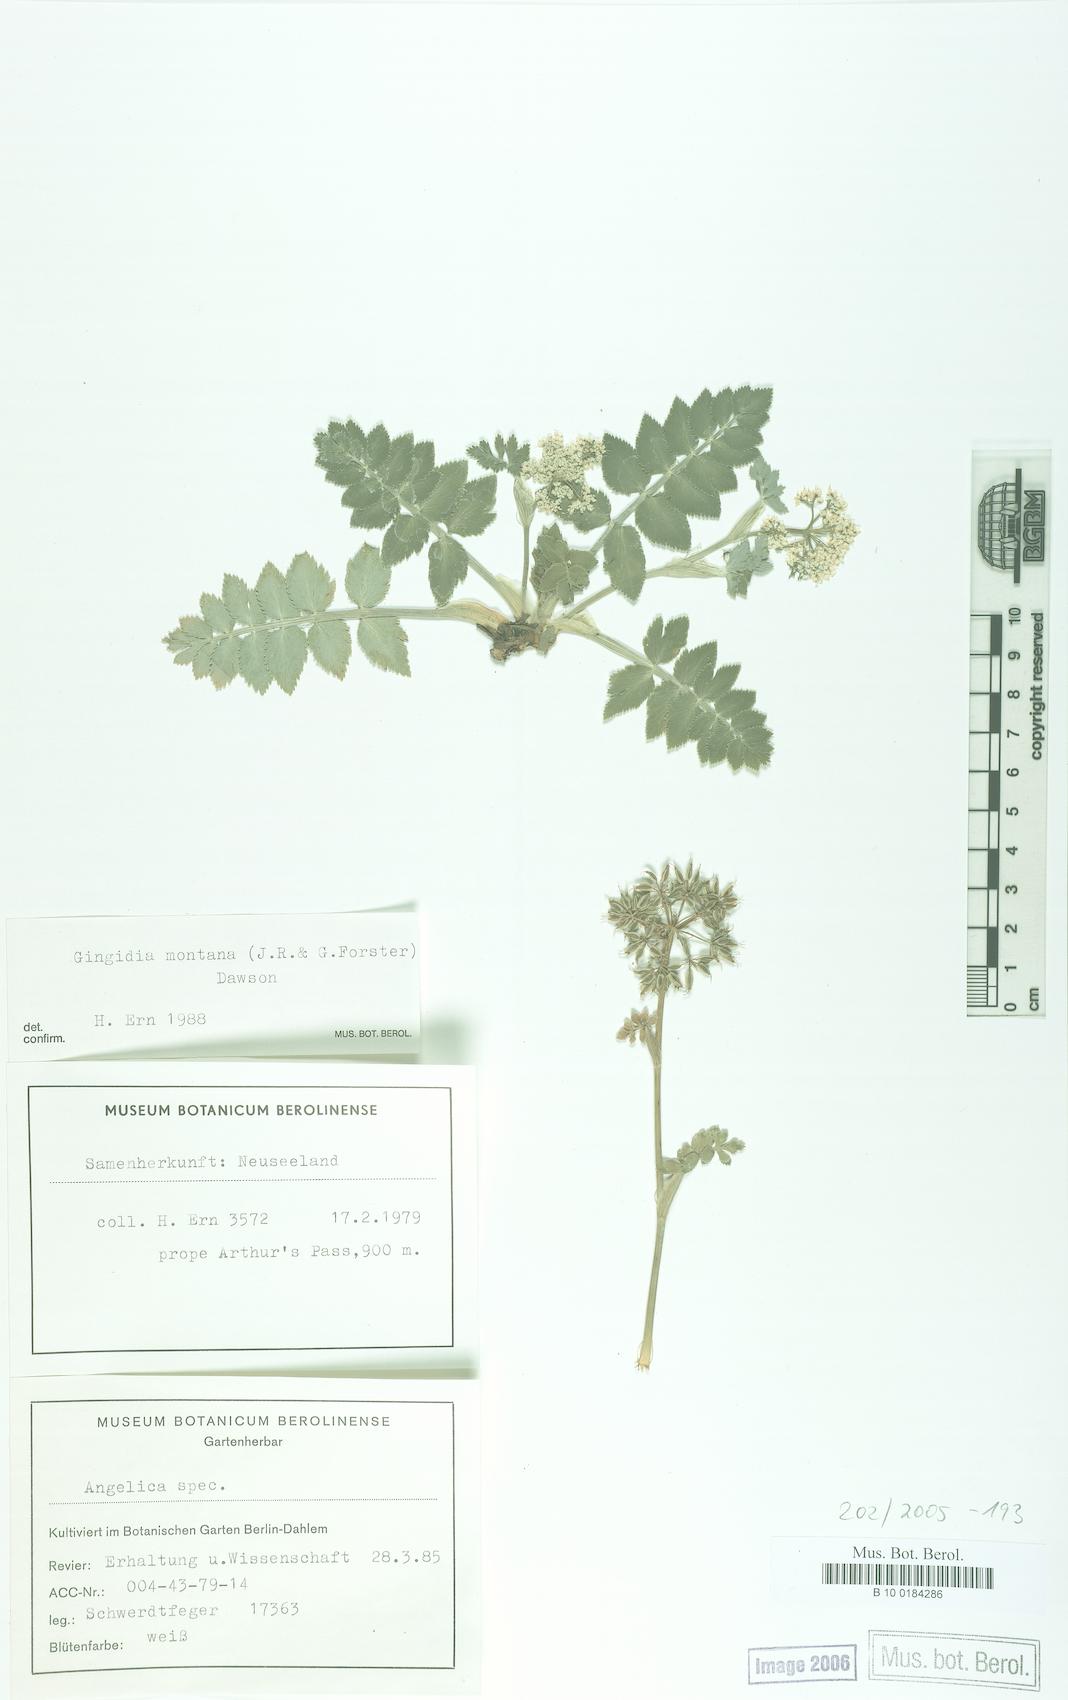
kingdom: Plantae
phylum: Tracheophyta
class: Magnoliopsida
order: Apiales
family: Apiaceae
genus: Gingidia
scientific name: Gingidia montana
